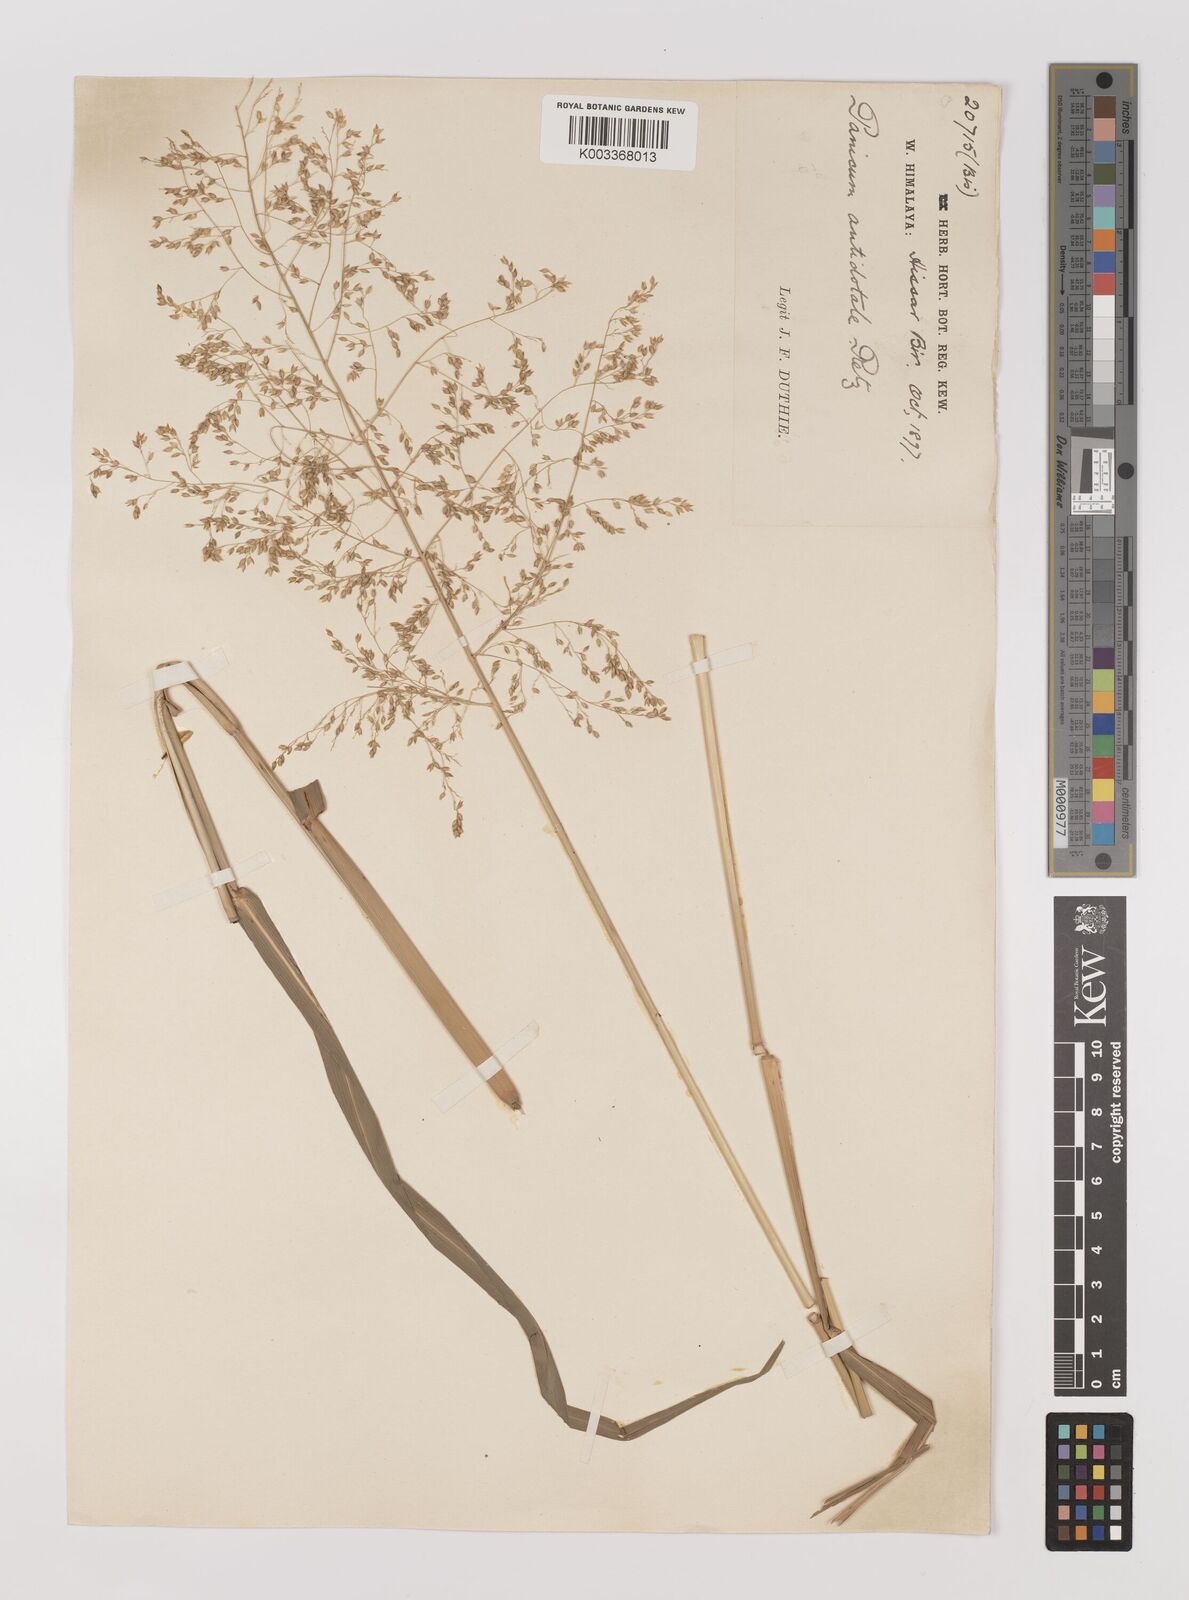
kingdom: Plantae
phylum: Tracheophyta
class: Liliopsida
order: Poales
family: Poaceae
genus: Panicum
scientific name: Panicum antidotale
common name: Blue panicum
